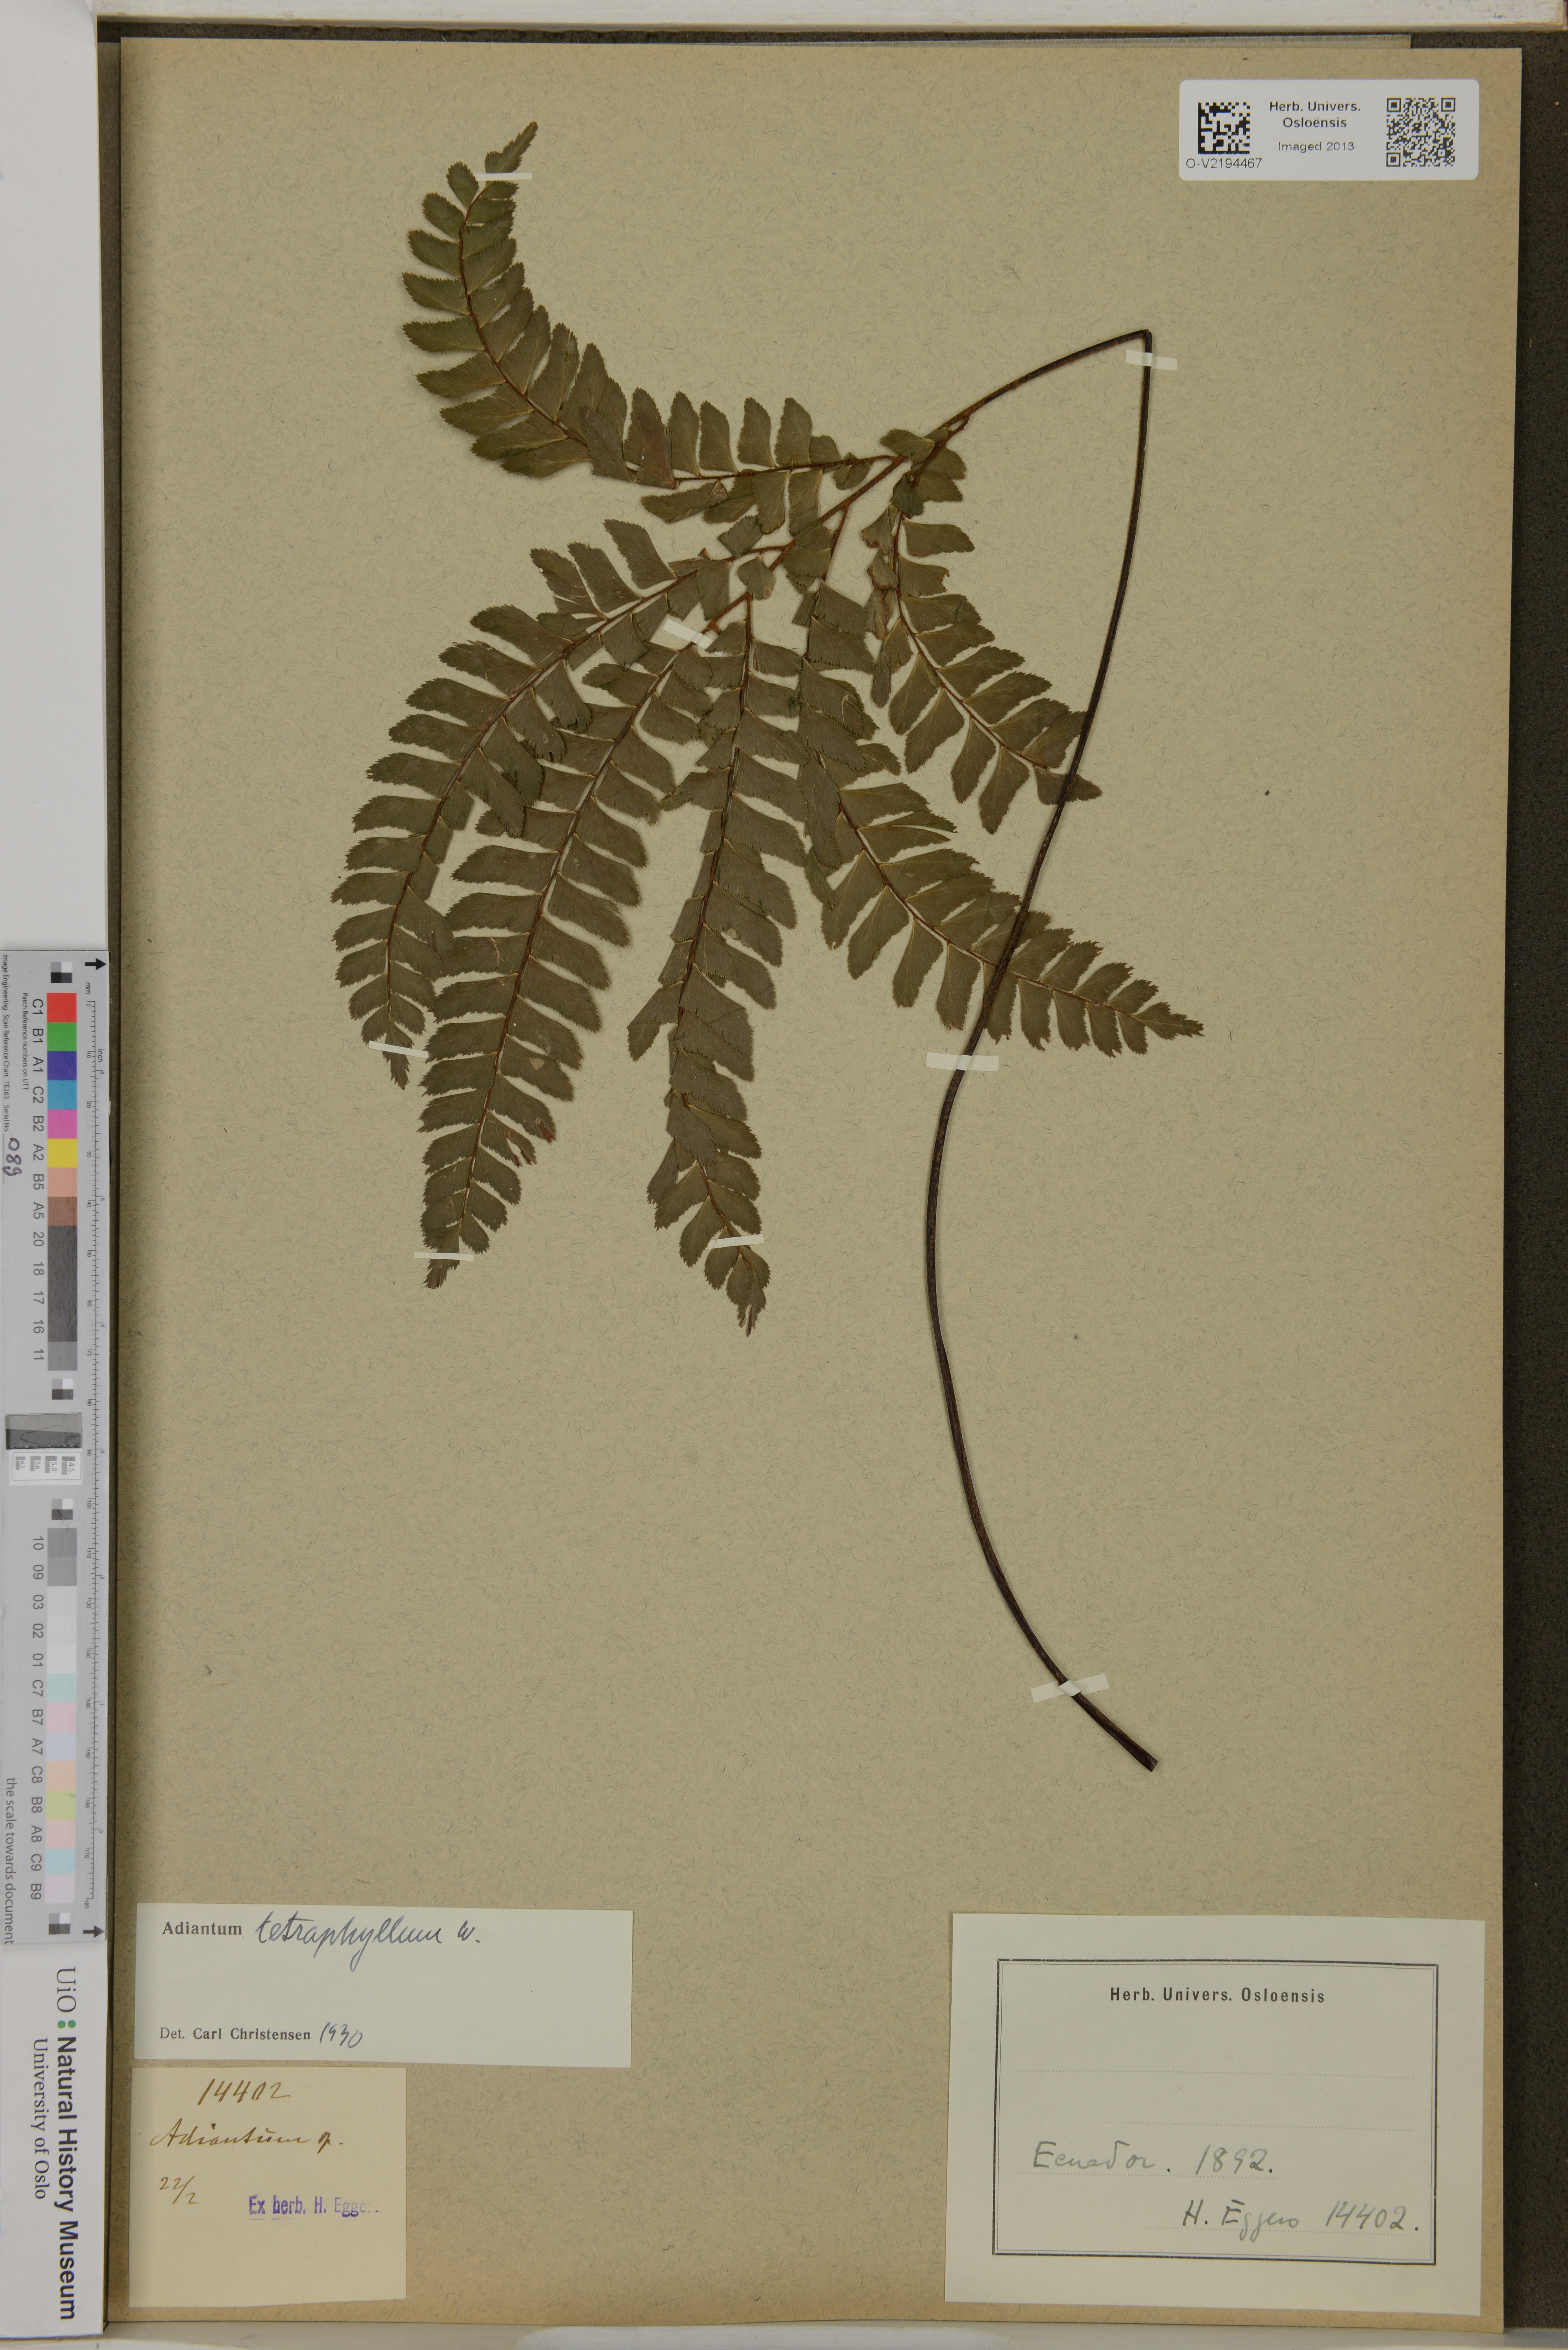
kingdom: Plantae
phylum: Tracheophyta
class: Polypodiopsida
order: Polypodiales
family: Pteridaceae
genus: Adiantum
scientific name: Adiantum tetraphyllum
